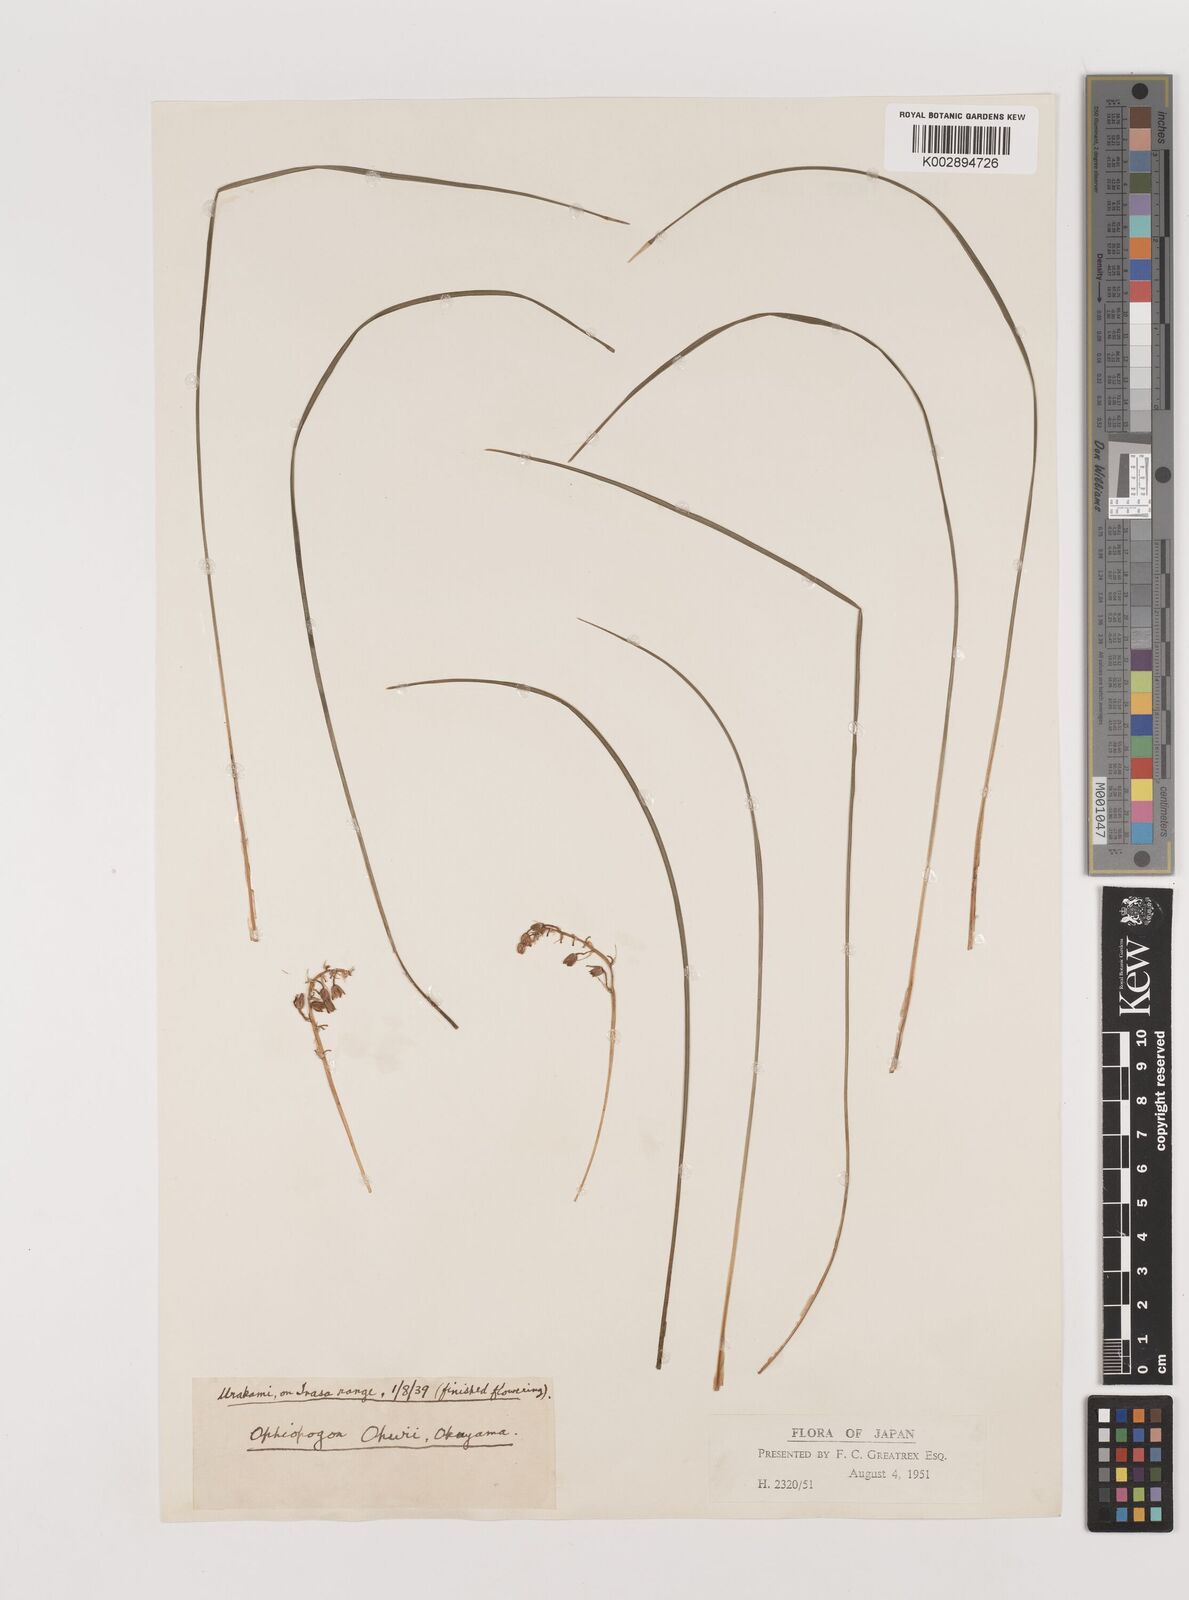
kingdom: Plantae
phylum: Tracheophyta
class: Liliopsida
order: Asparagales
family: Asparagaceae
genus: Ophiopogon
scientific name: Ophiopogon japonicus
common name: Dwarf lilyturf
